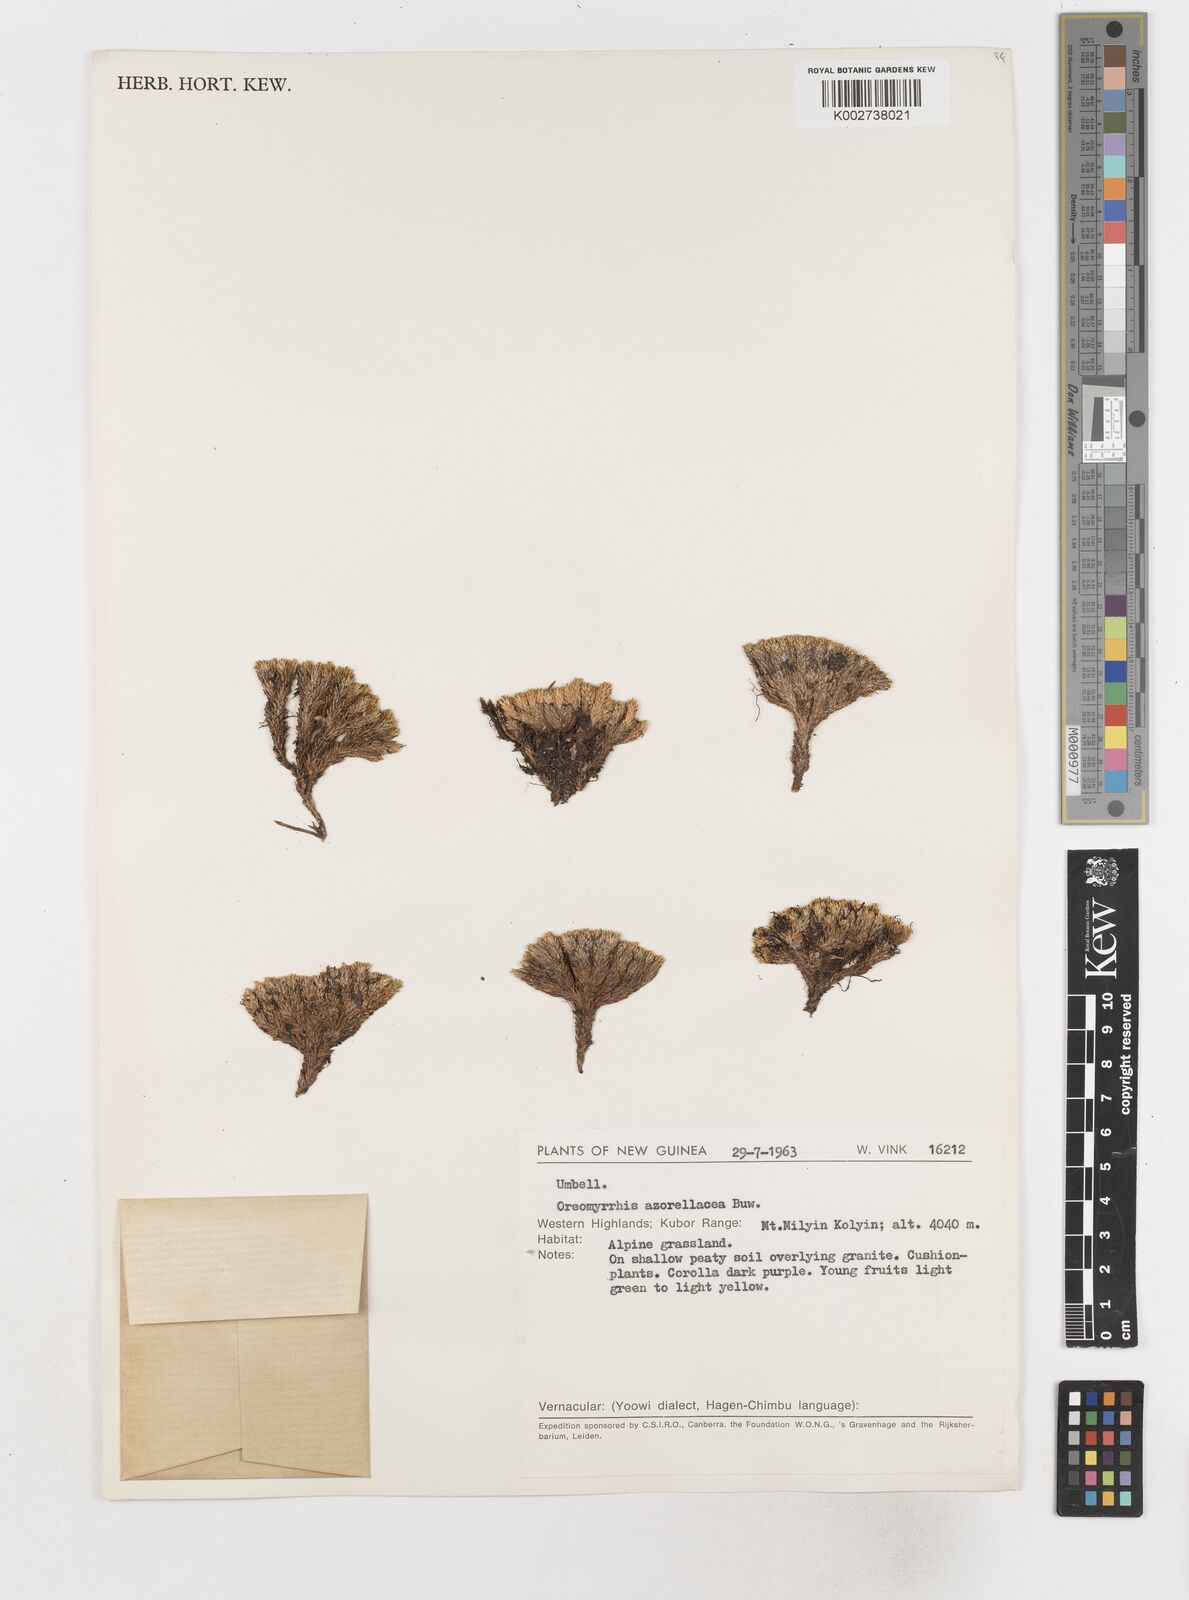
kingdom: Plantae
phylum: Tracheophyta
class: Magnoliopsida
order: Apiales
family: Apiaceae
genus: Chaerophyllum
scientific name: Chaerophyllum azorellaceum
